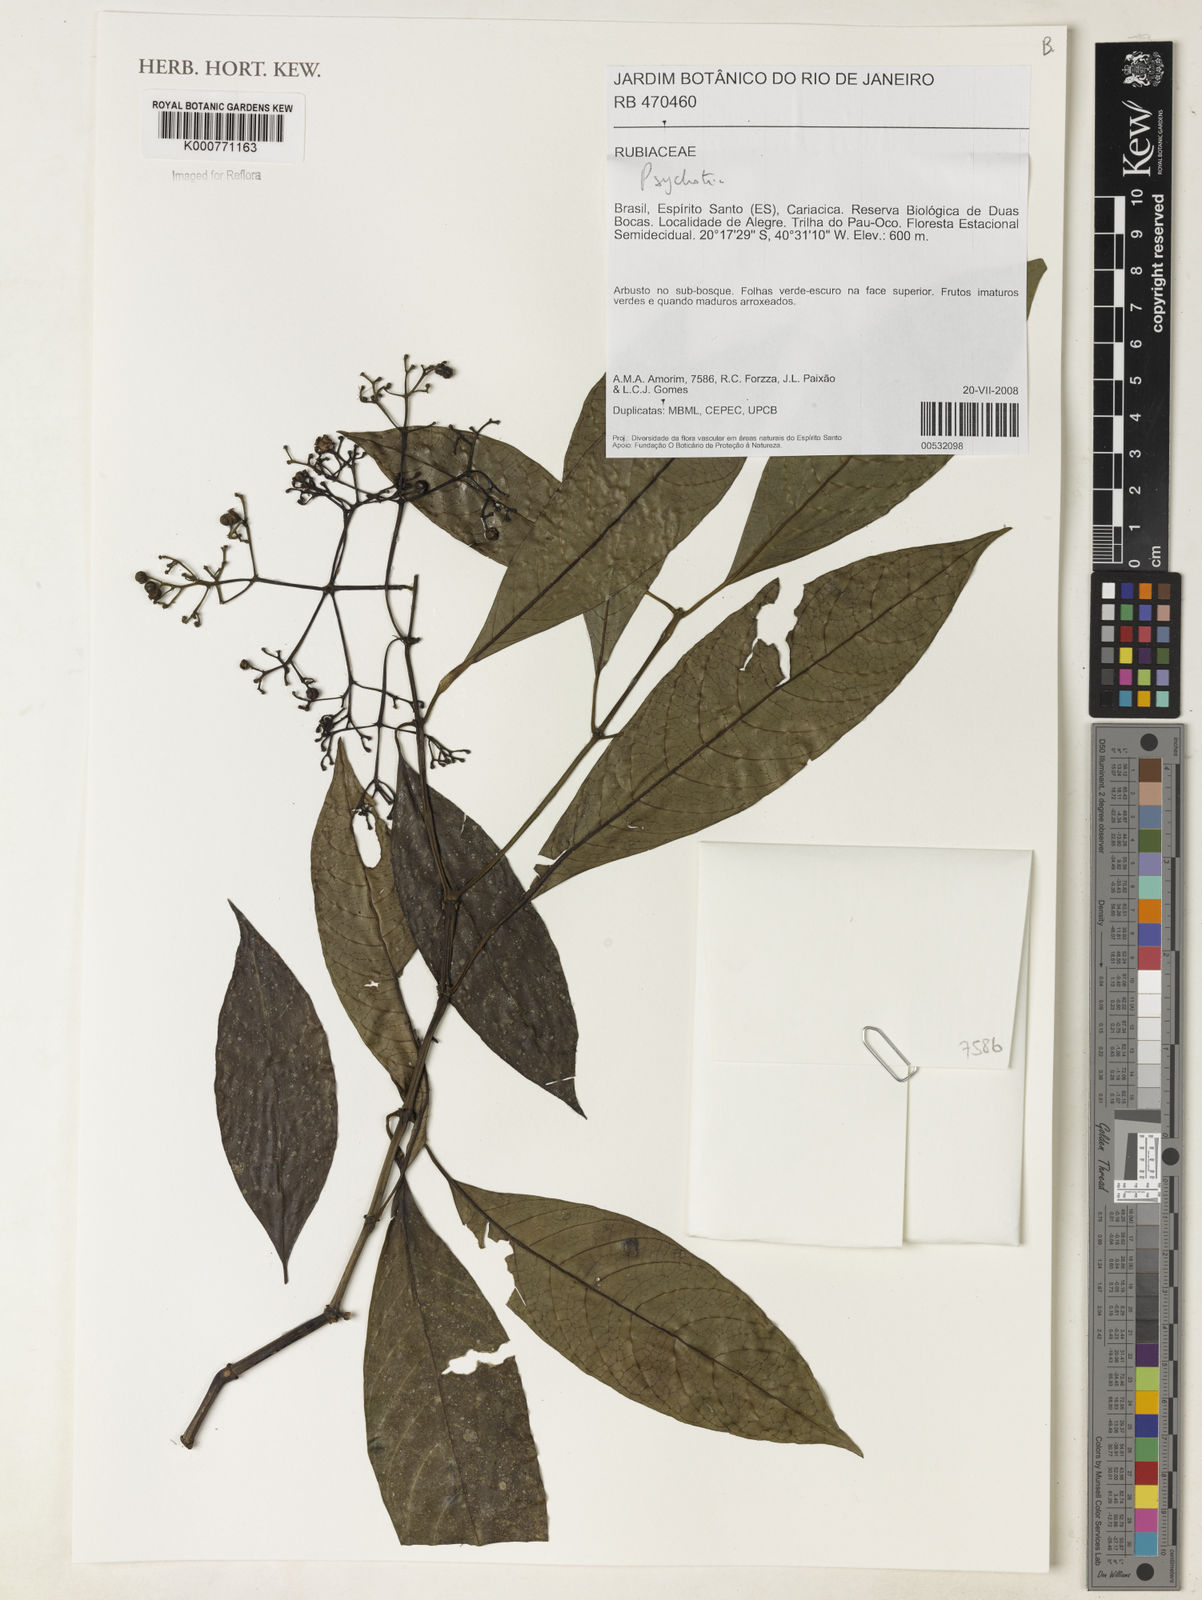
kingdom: Plantae
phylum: Tracheophyta
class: Magnoliopsida
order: Gentianales
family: Rubiaceae
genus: Psychotria
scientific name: Psychotria
